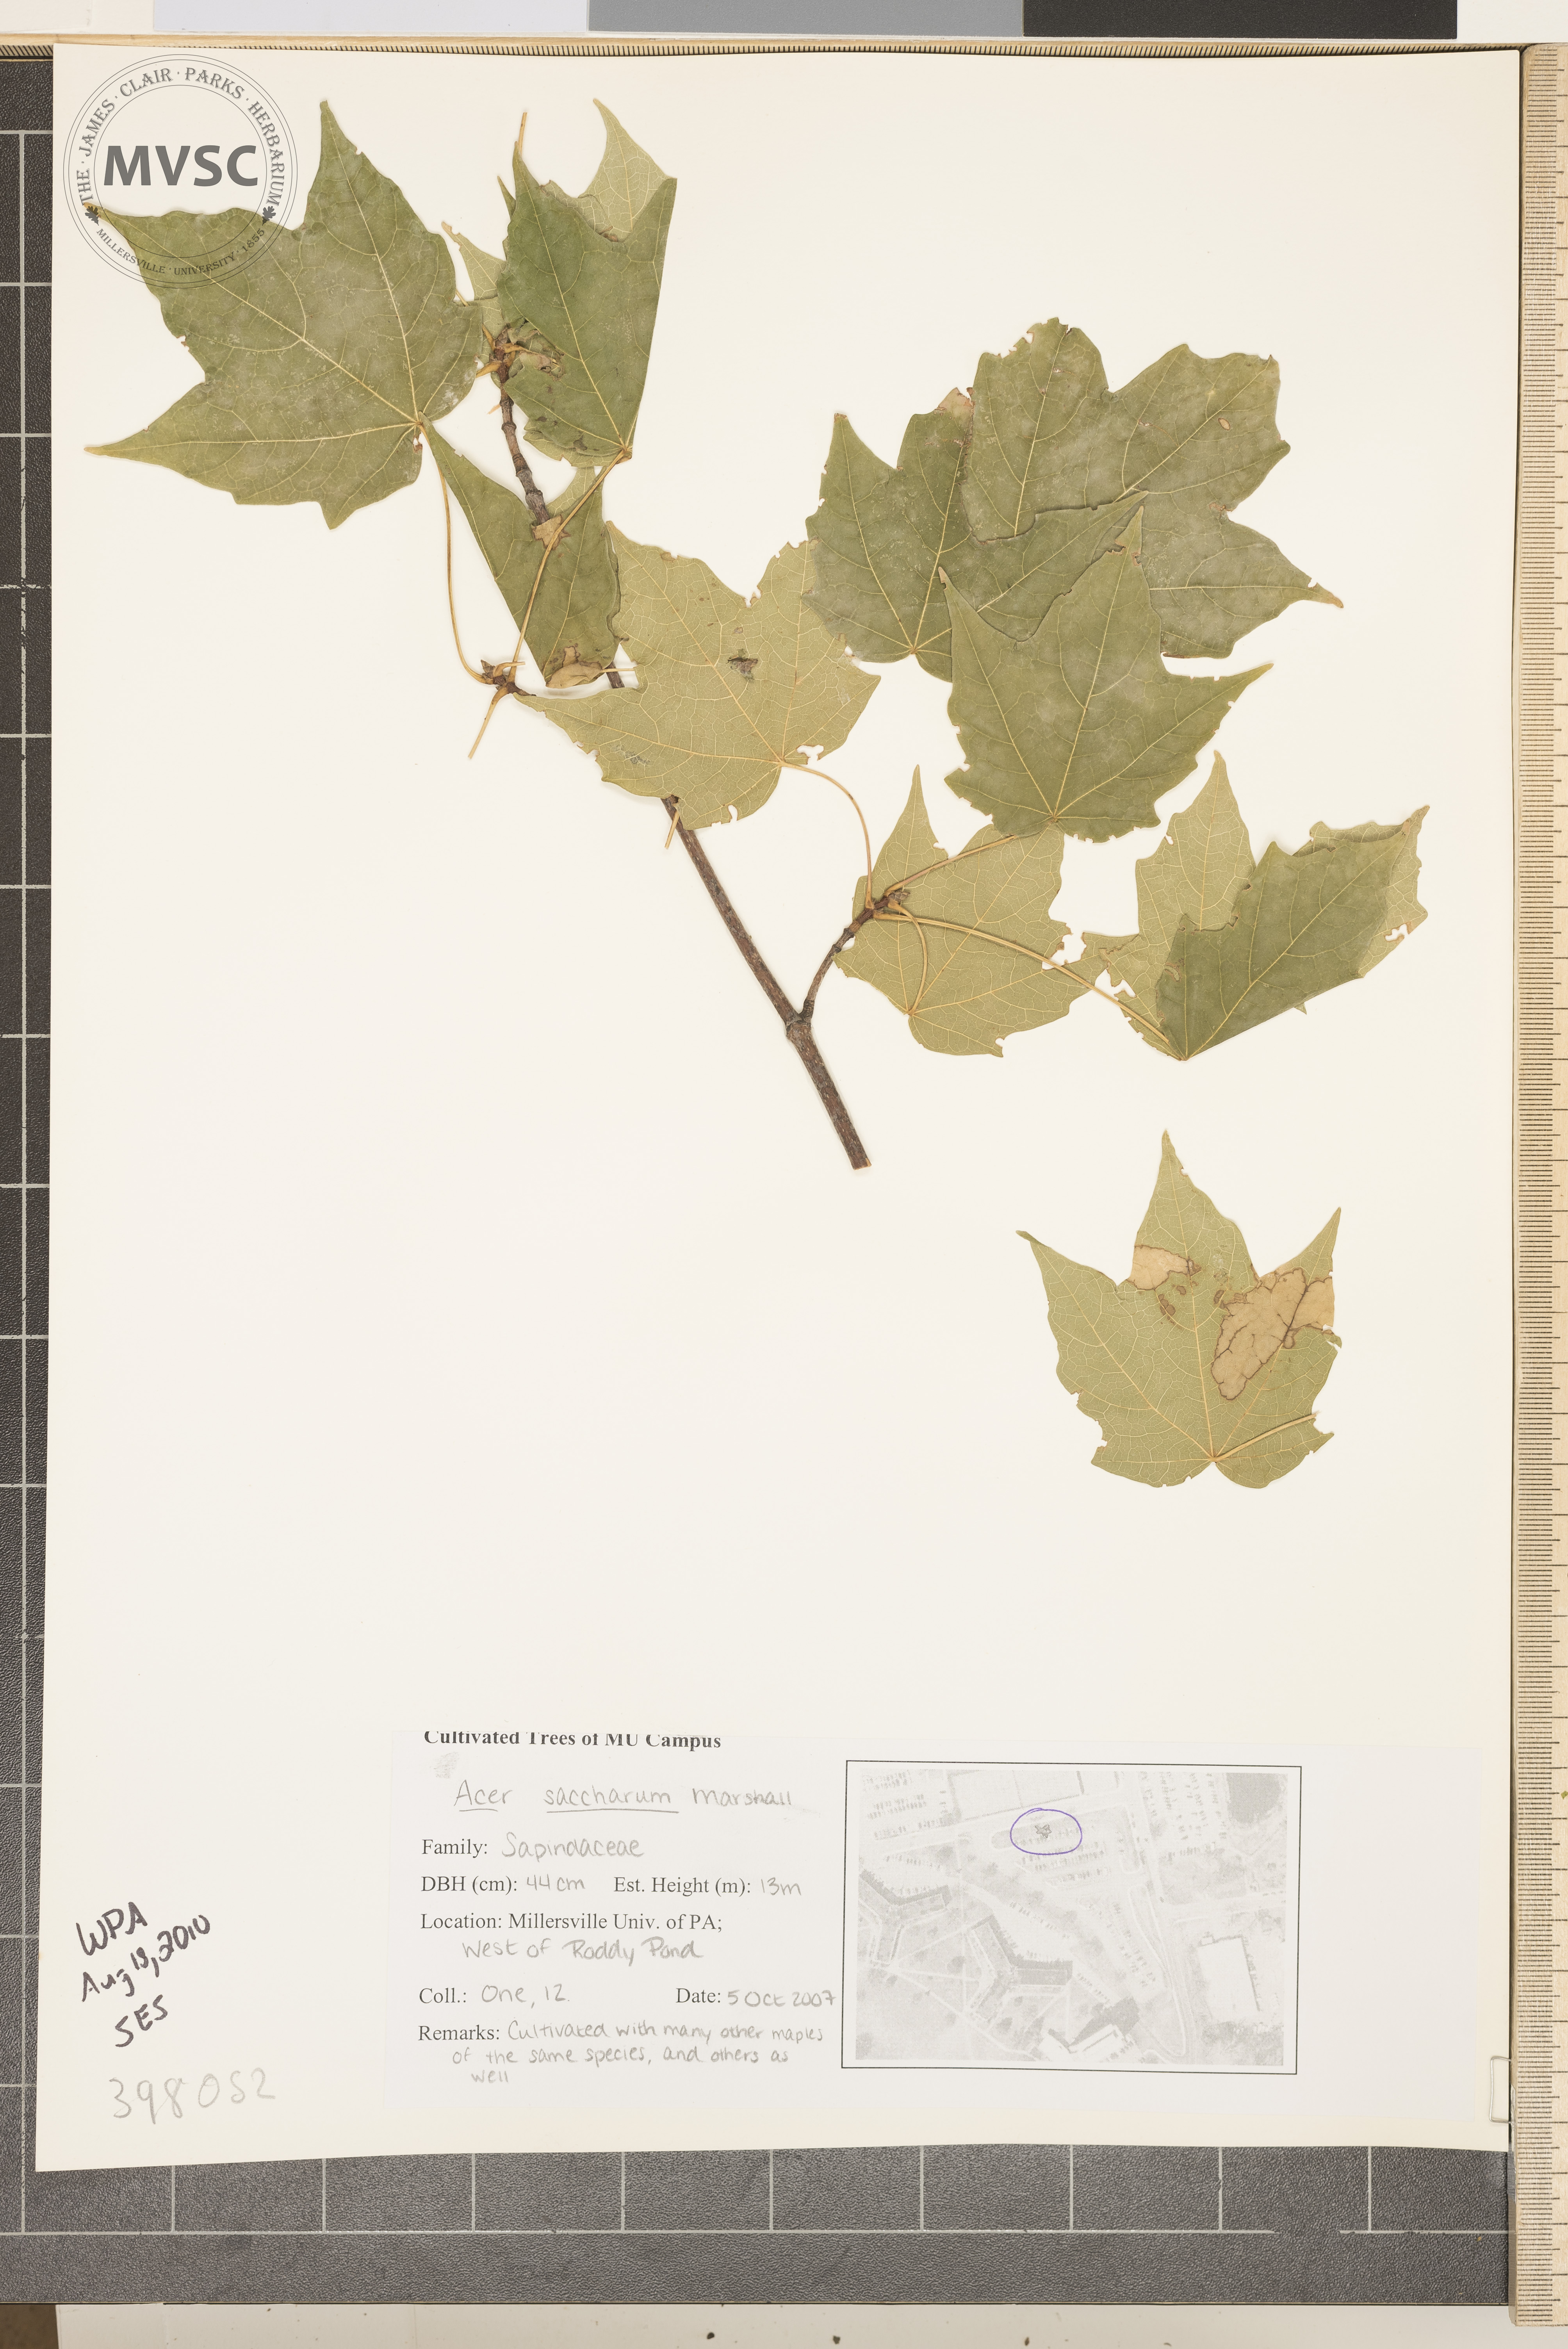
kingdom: Plantae
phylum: Tracheophyta
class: Magnoliopsida
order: Sapindales
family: Sapindaceae
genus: Acer
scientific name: Acer saccharum
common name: Sugar maple
